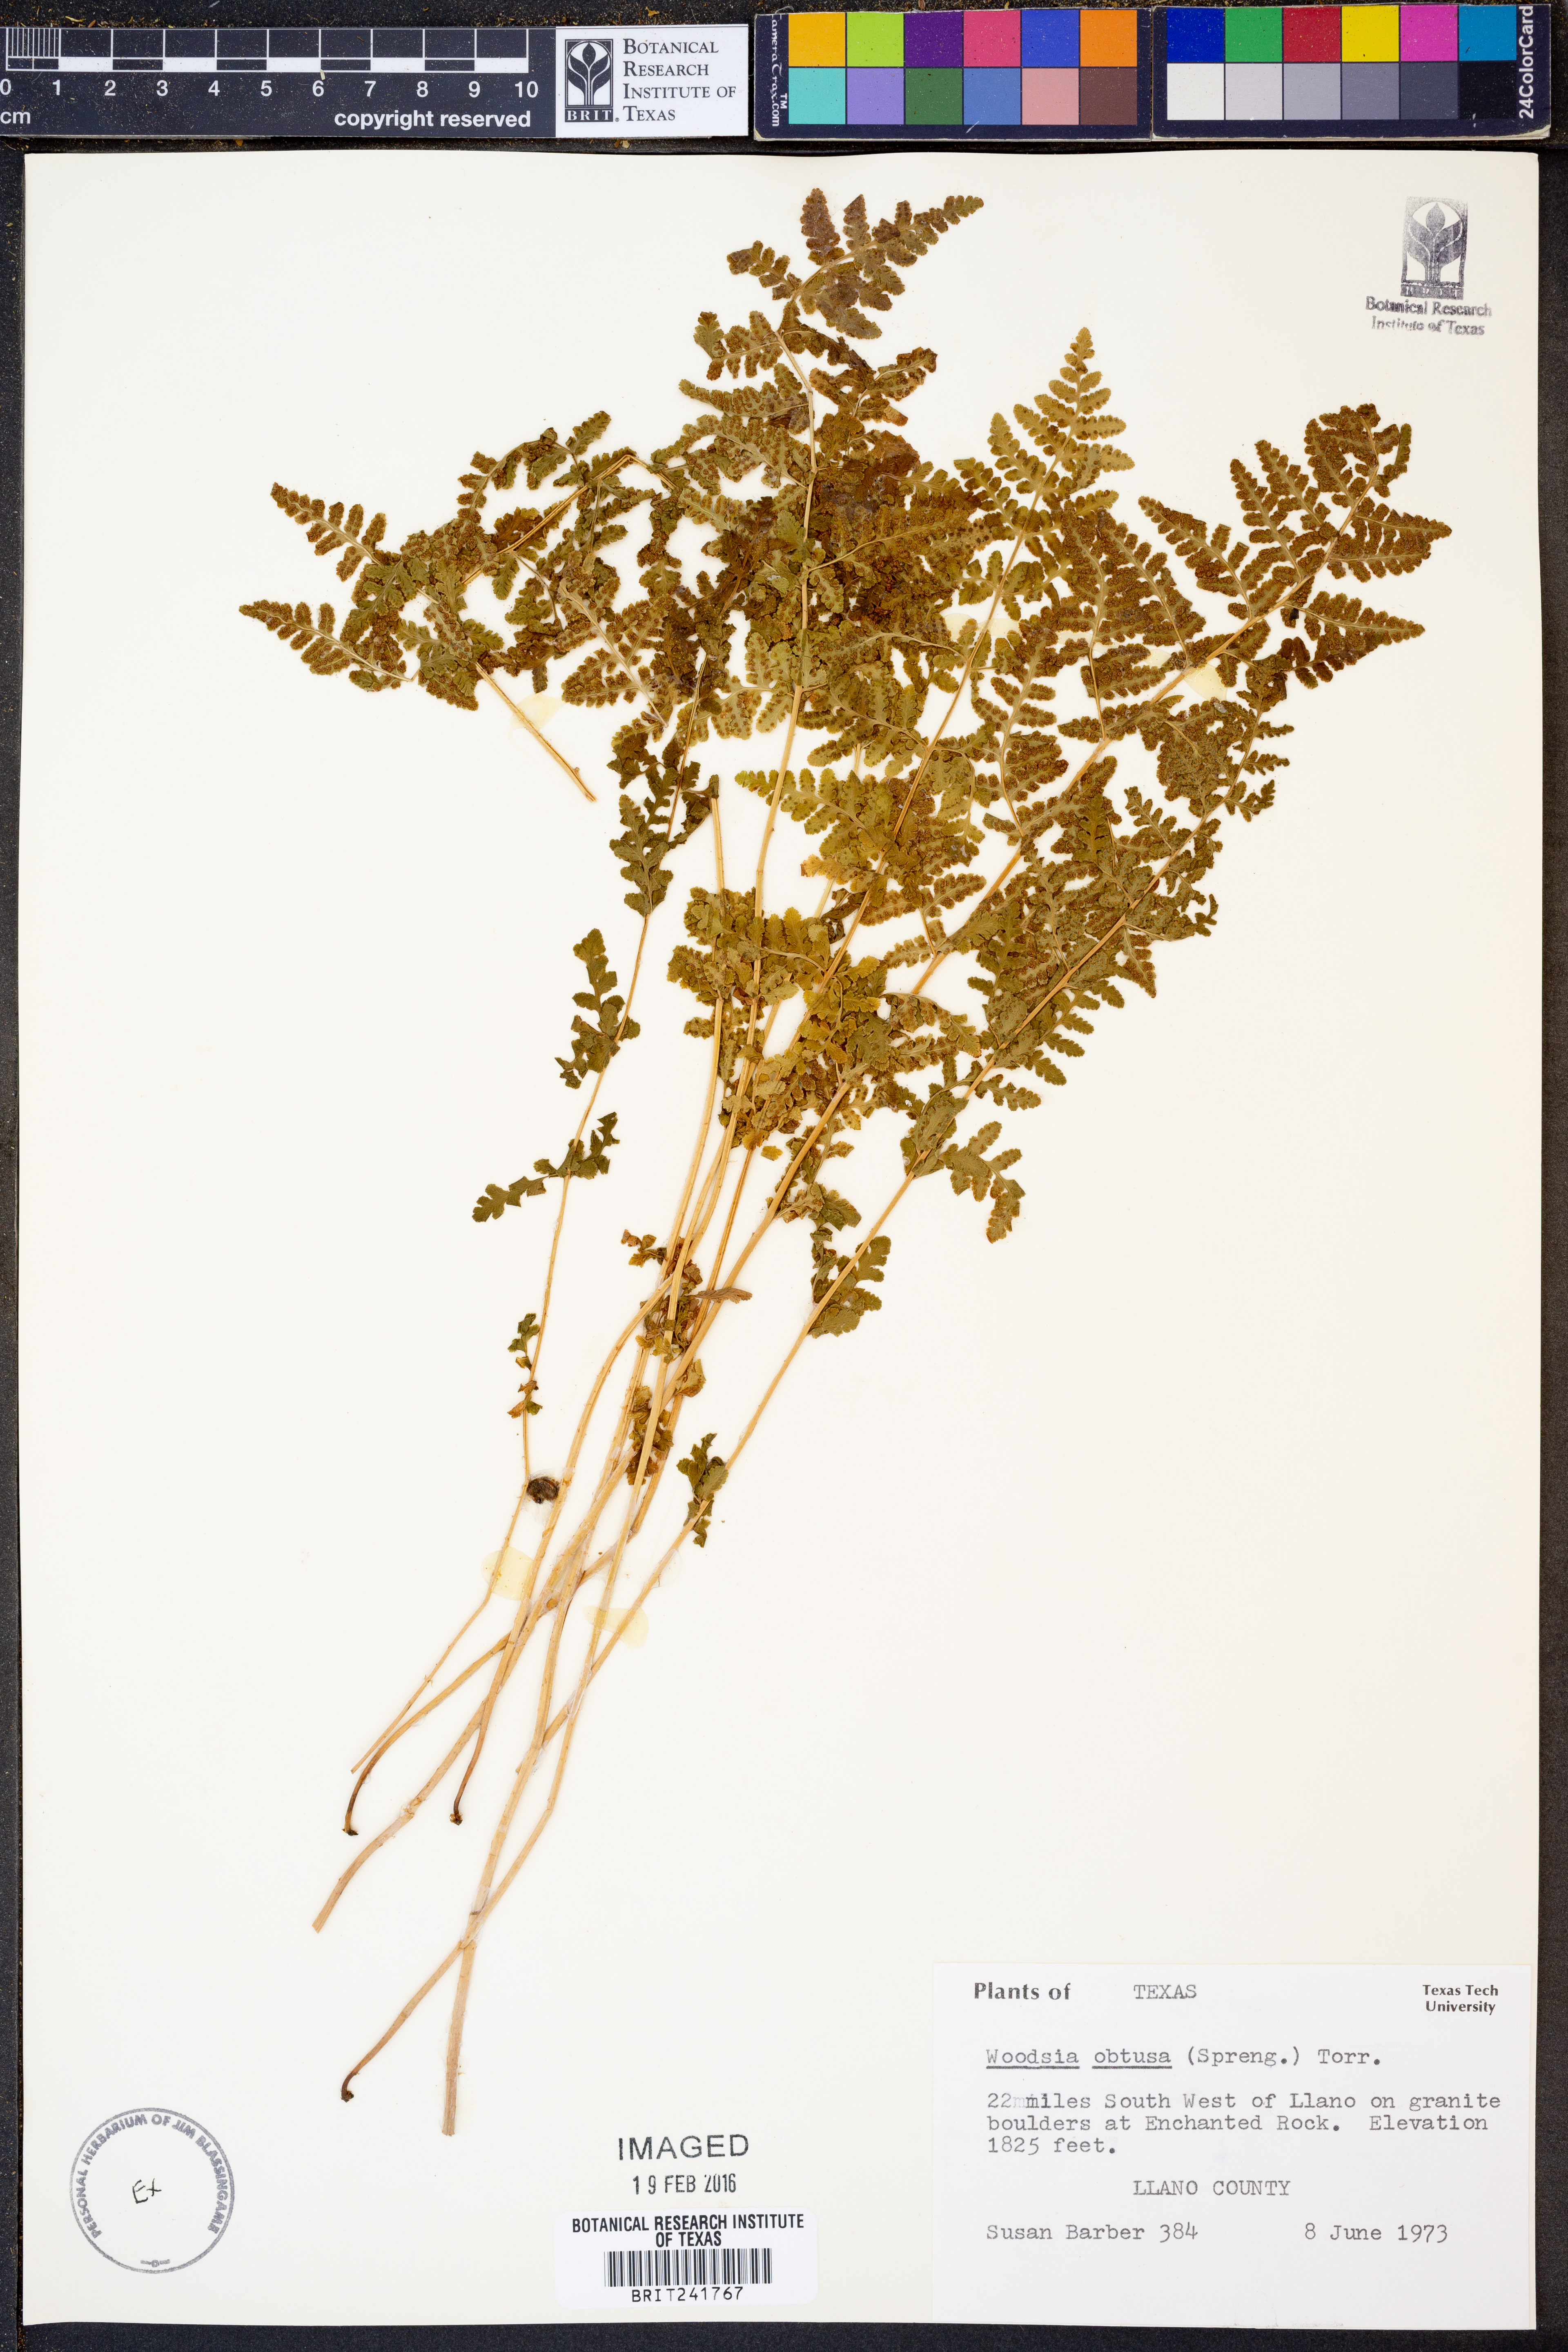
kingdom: Plantae
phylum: Tracheophyta
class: Polypodiopsida
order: Polypodiales
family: Woodsiaceae
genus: Physematium
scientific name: Physematium obtusum
